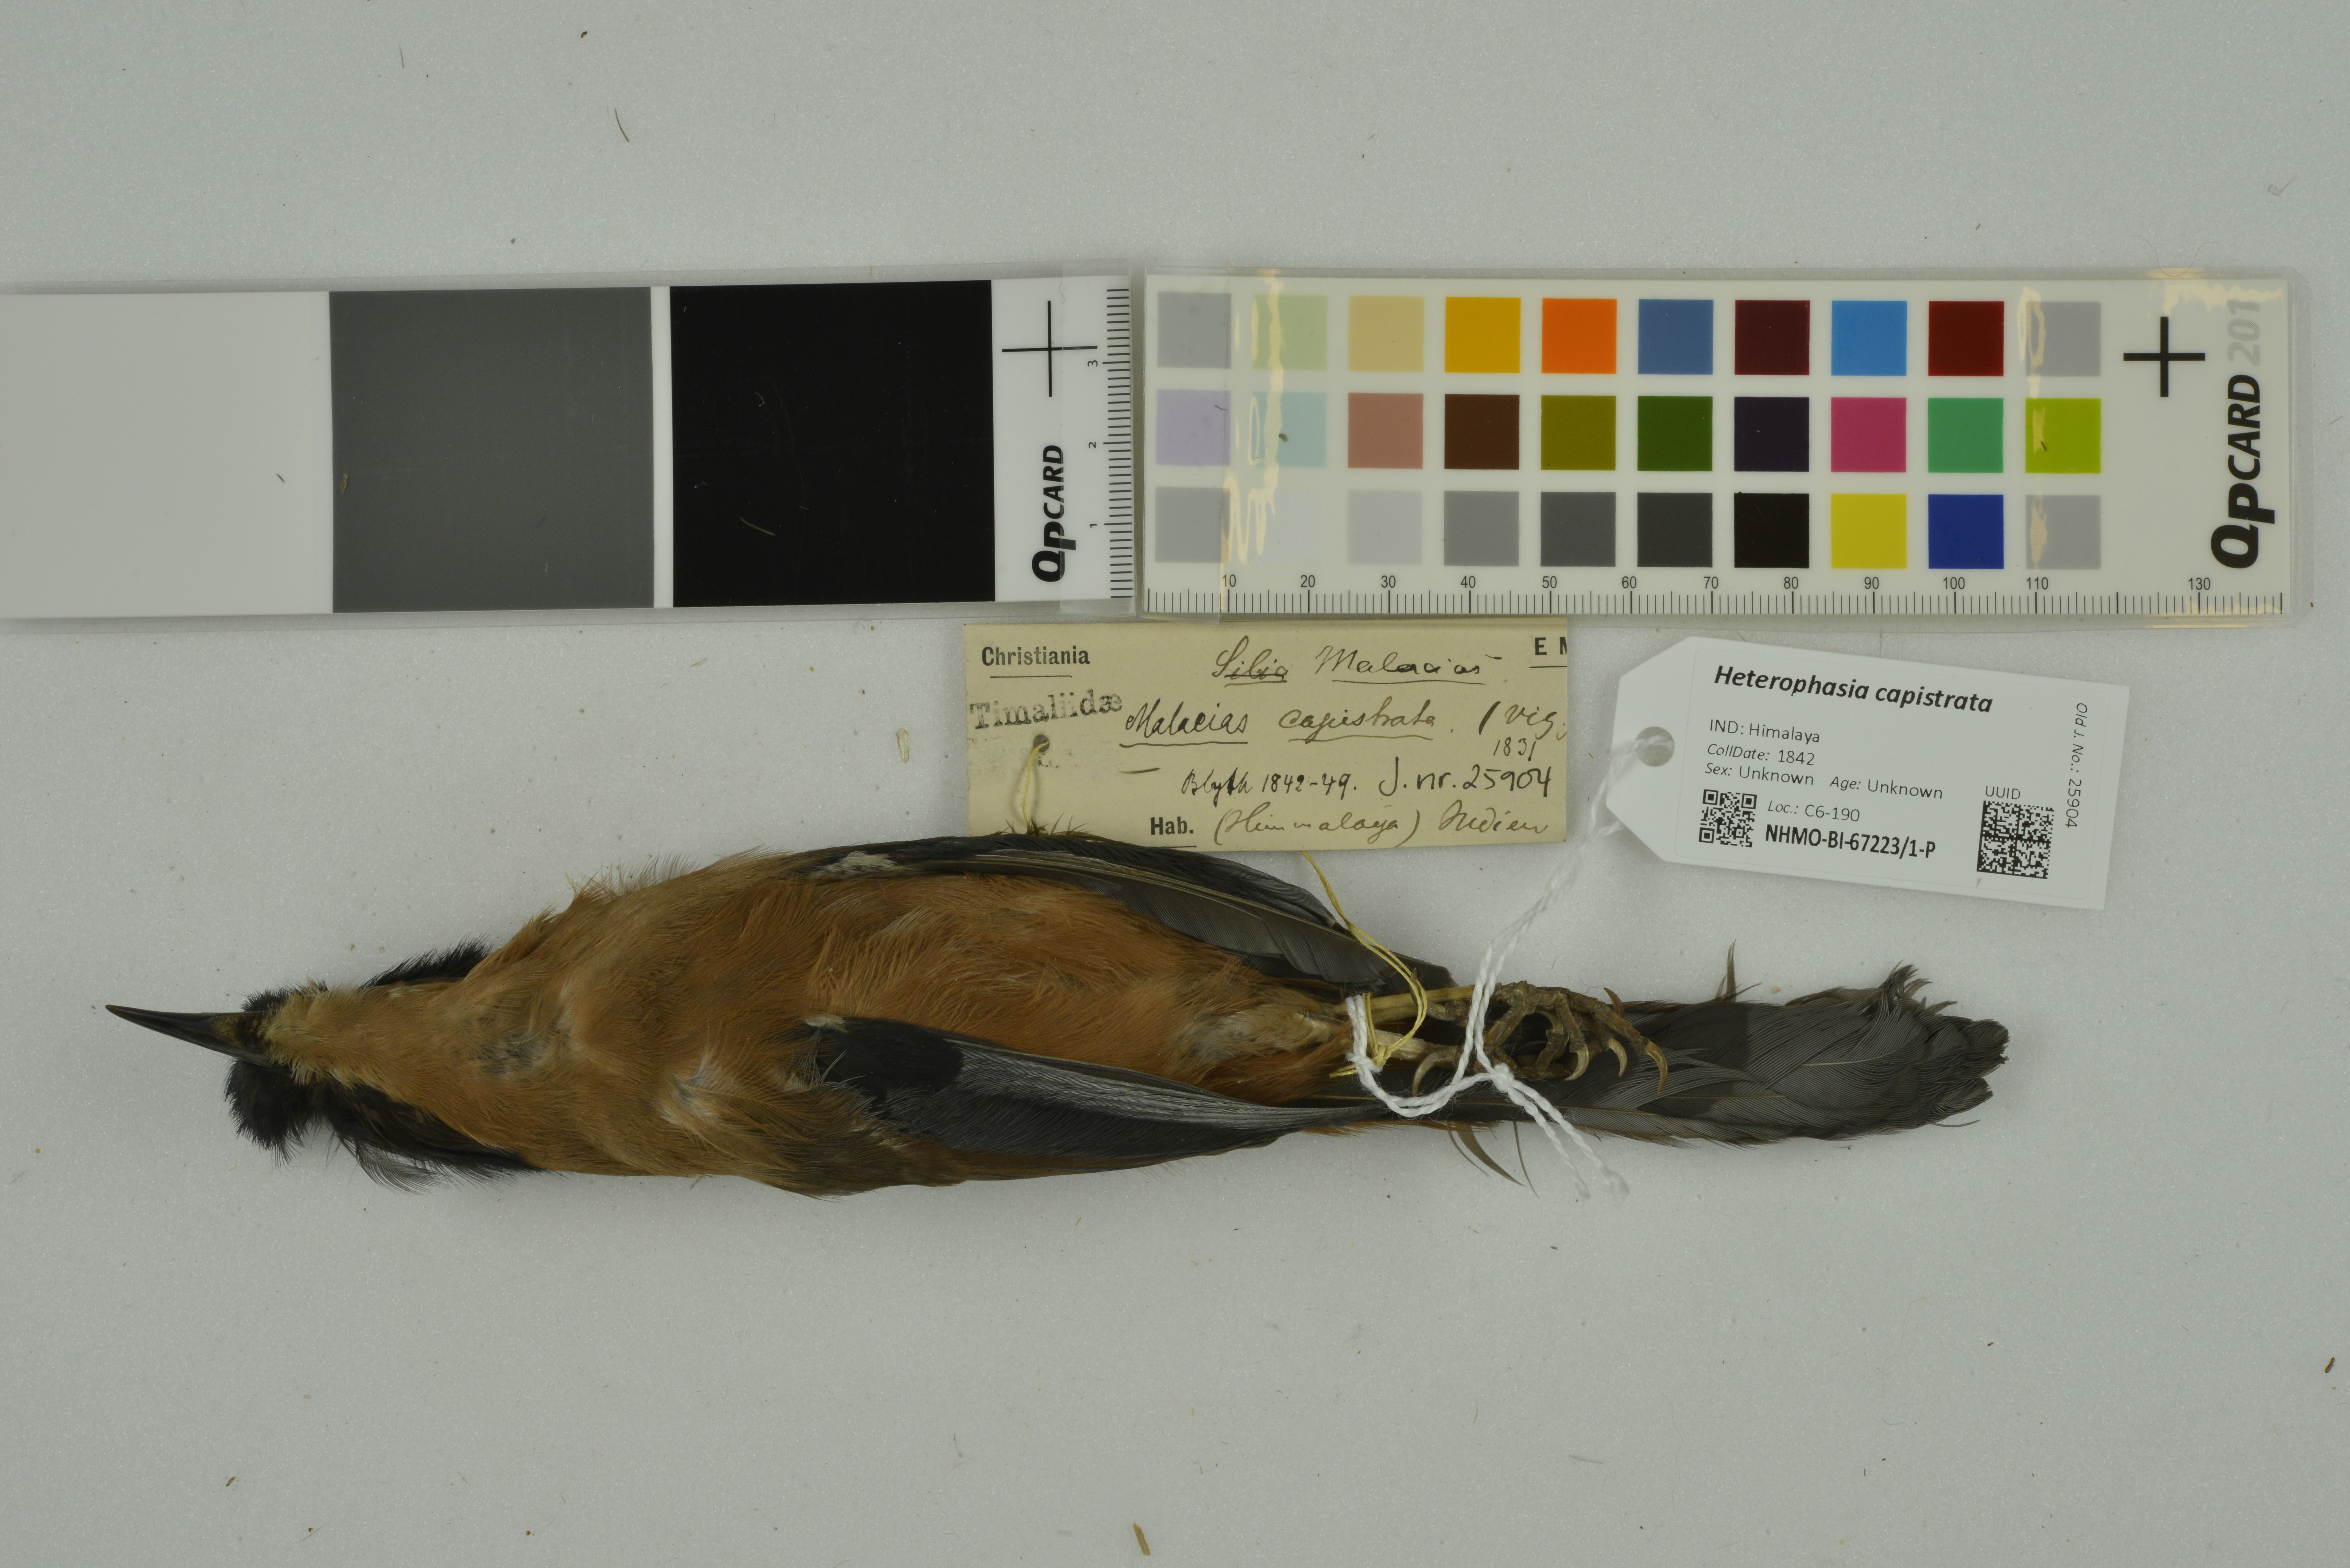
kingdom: Animalia
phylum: Chordata
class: Aves
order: Passeriformes
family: Leiothrichidae
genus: Heterophasia
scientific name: Heterophasia capistrata
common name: Rufous sibia
